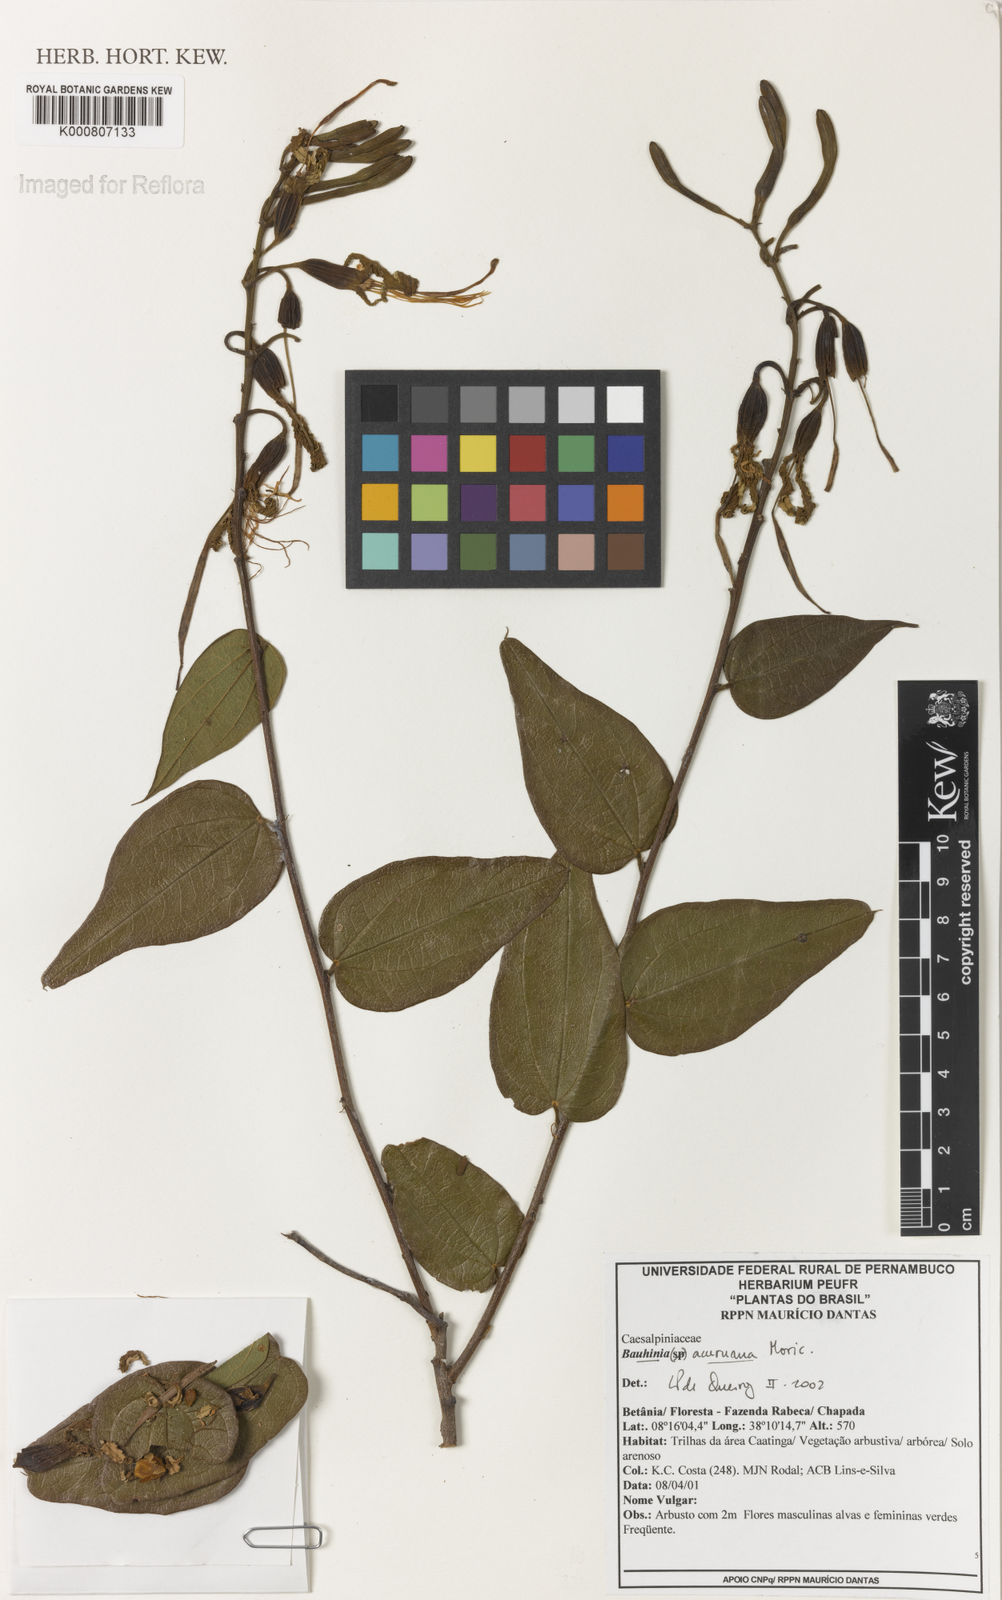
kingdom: Plantae
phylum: Tracheophyta
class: Magnoliopsida
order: Fabales
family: Fabaceae
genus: Bauhinia
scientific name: Bauhinia acuruana
